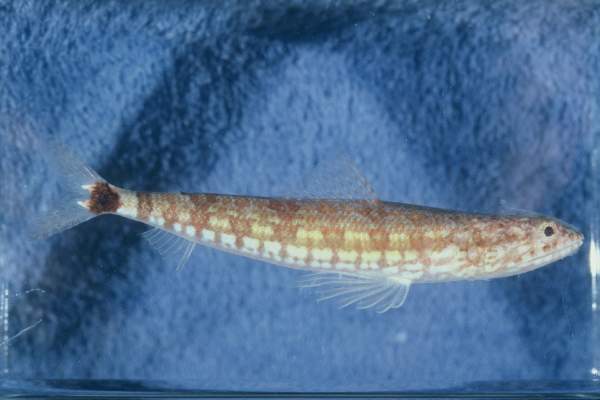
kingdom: Animalia
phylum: Chordata
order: Aulopiformes
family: Synodontidae
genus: Synodus
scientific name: Synodus jaculum
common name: Lighthouse lizardfish
